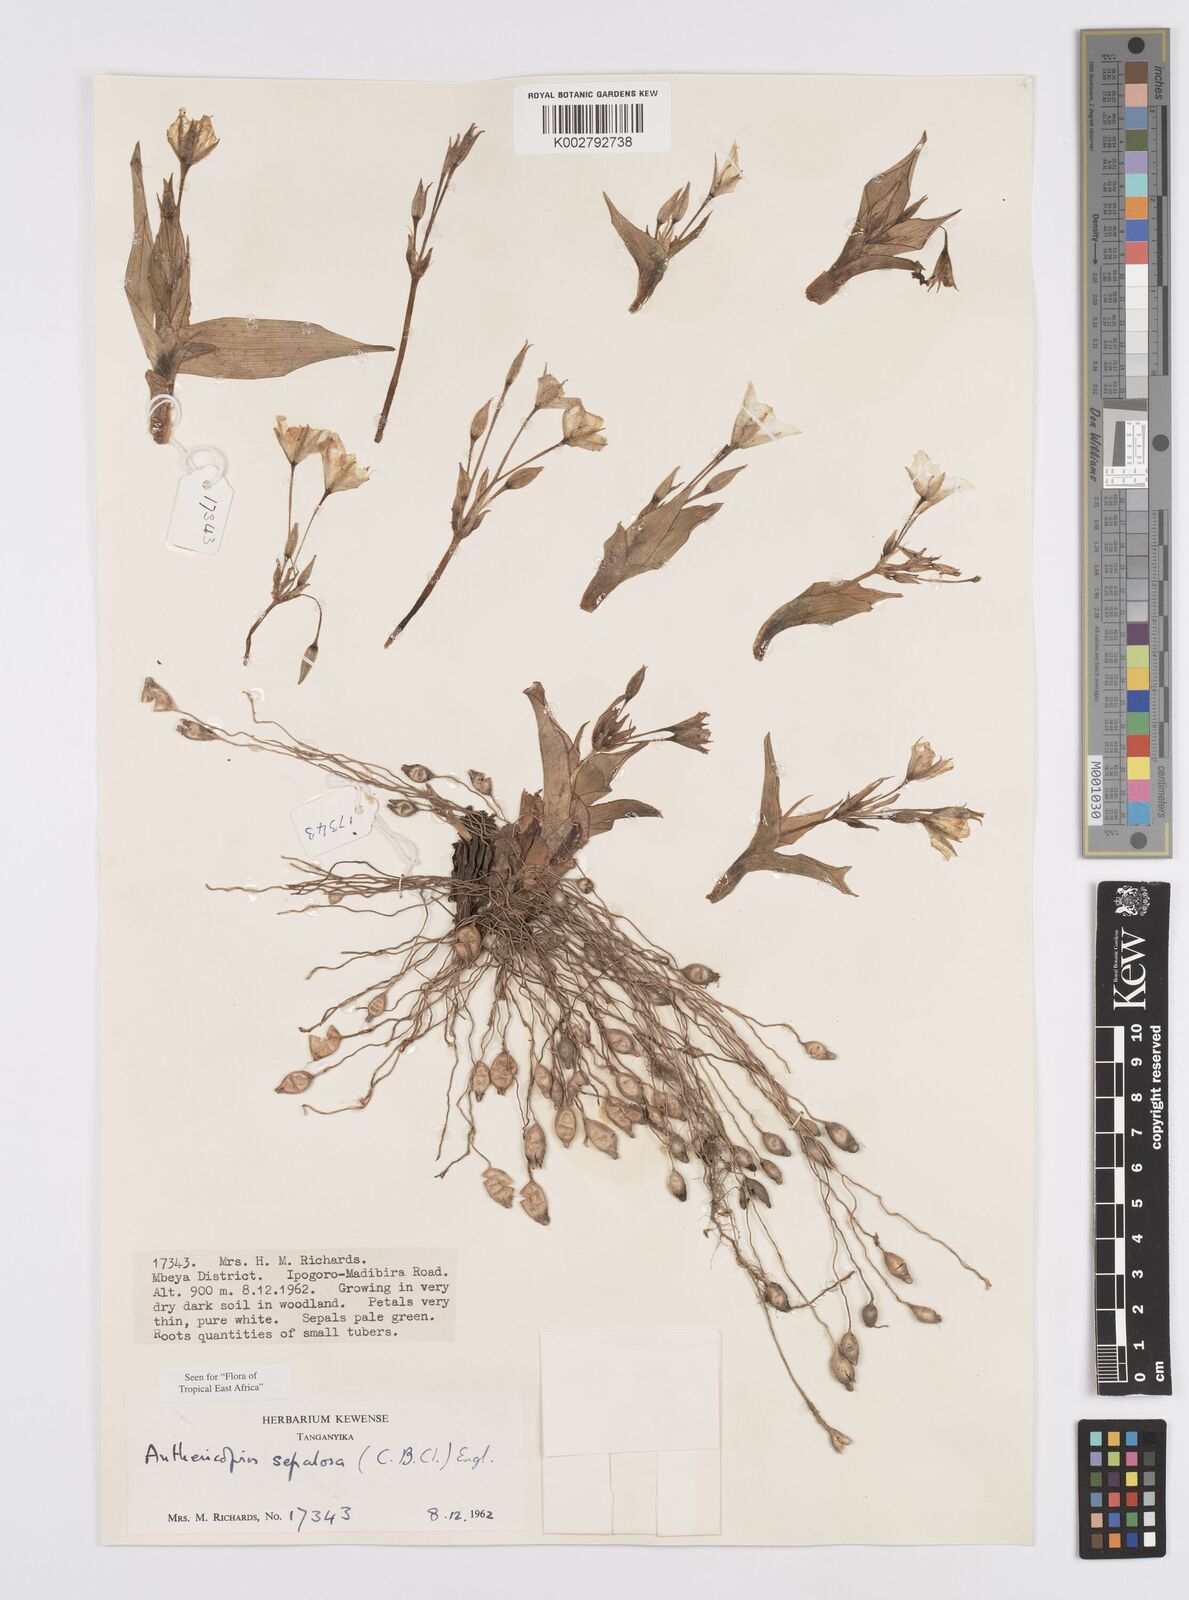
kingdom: Plantae
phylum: Tracheophyta
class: Liliopsida
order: Commelinales
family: Commelinaceae
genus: Anthericopsis
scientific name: Anthericopsis sepalosa
